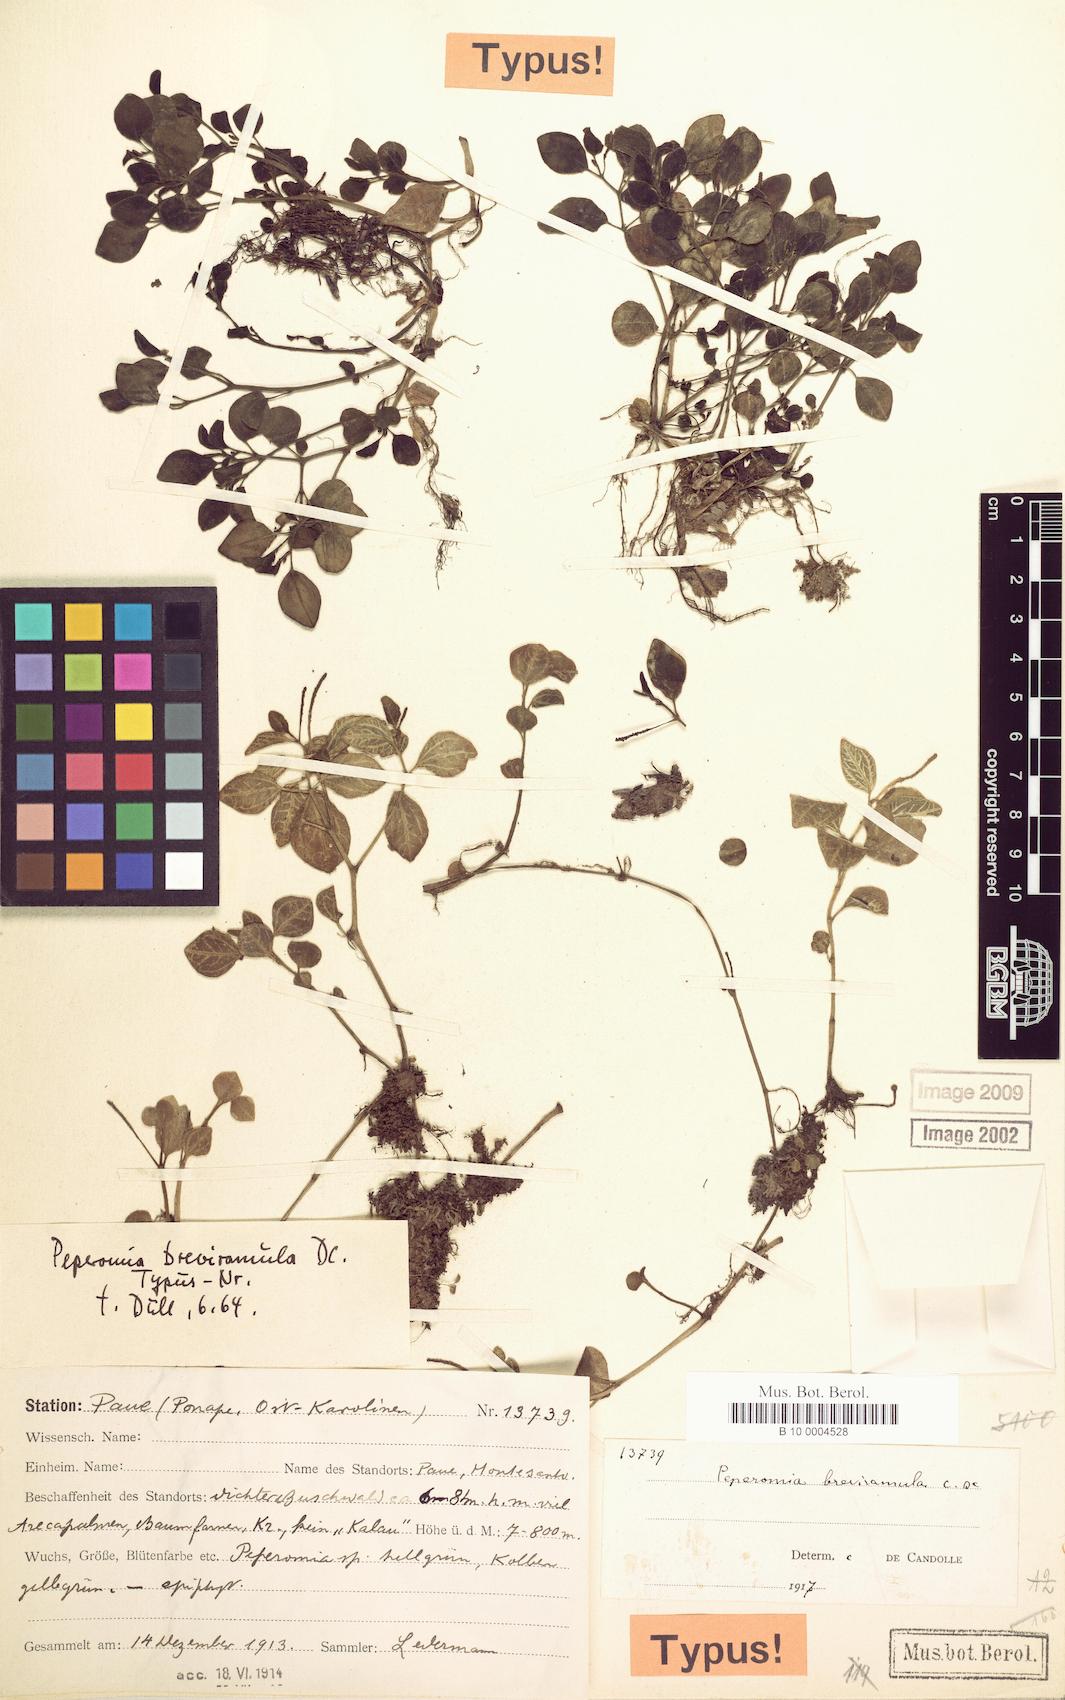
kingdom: Plantae
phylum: Tracheophyta
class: Magnoliopsida
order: Piperales
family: Piperaceae
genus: Peperomia
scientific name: Peperomia breviramula
